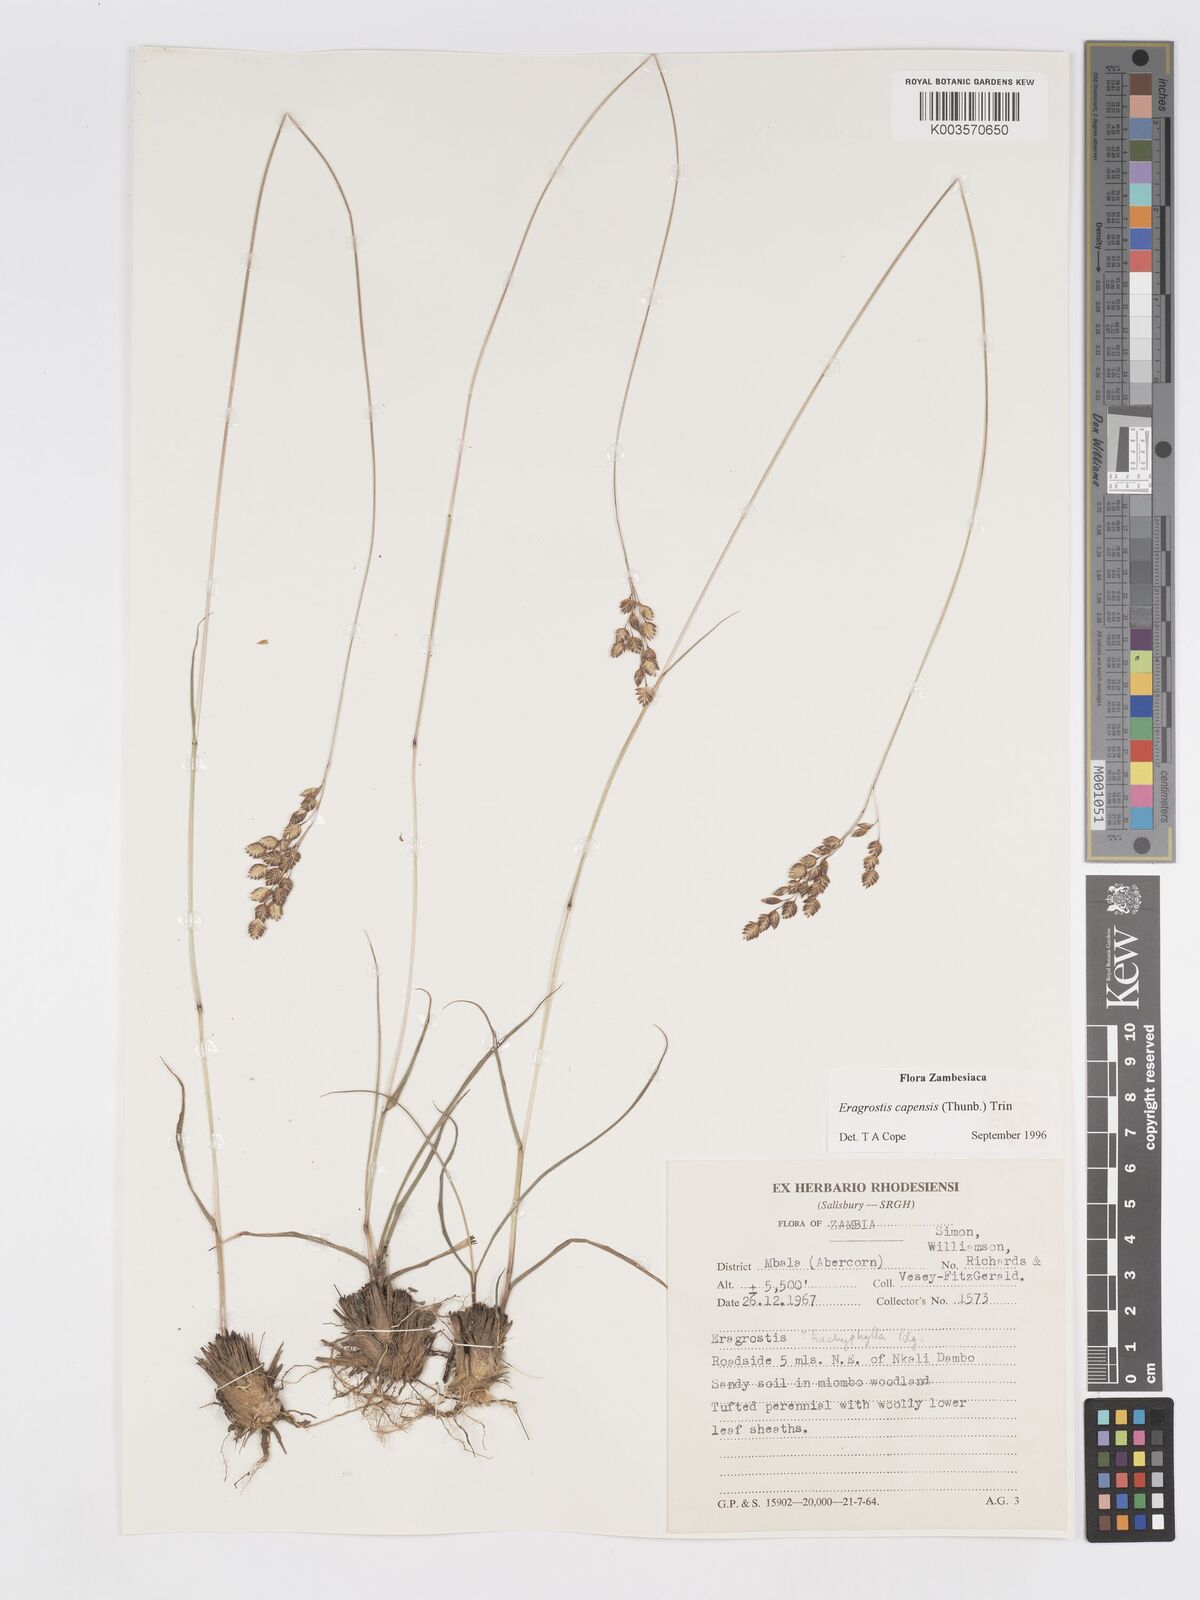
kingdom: Plantae
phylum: Tracheophyta
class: Liliopsida
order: Poales
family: Poaceae
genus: Eragrostis
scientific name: Eragrostis capensis
